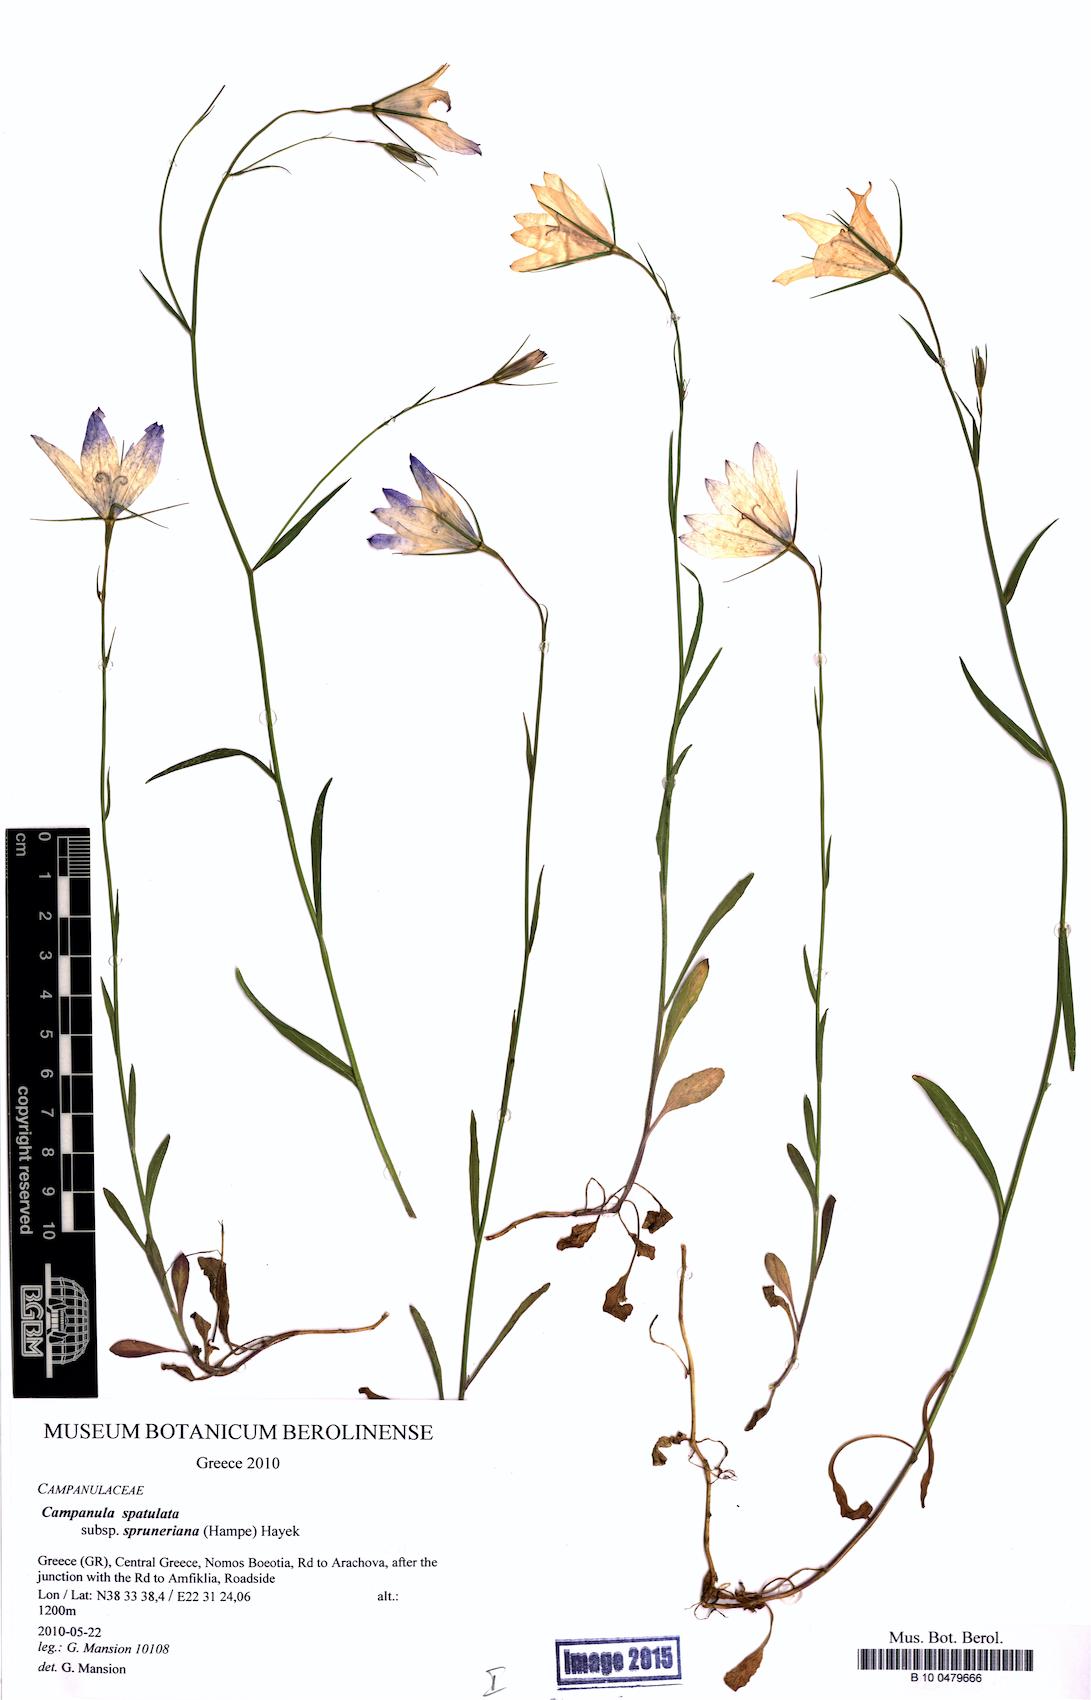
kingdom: Plantae
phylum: Tracheophyta
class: Magnoliopsida
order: Asterales
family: Campanulaceae
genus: Campanula
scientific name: Campanula spatulata
